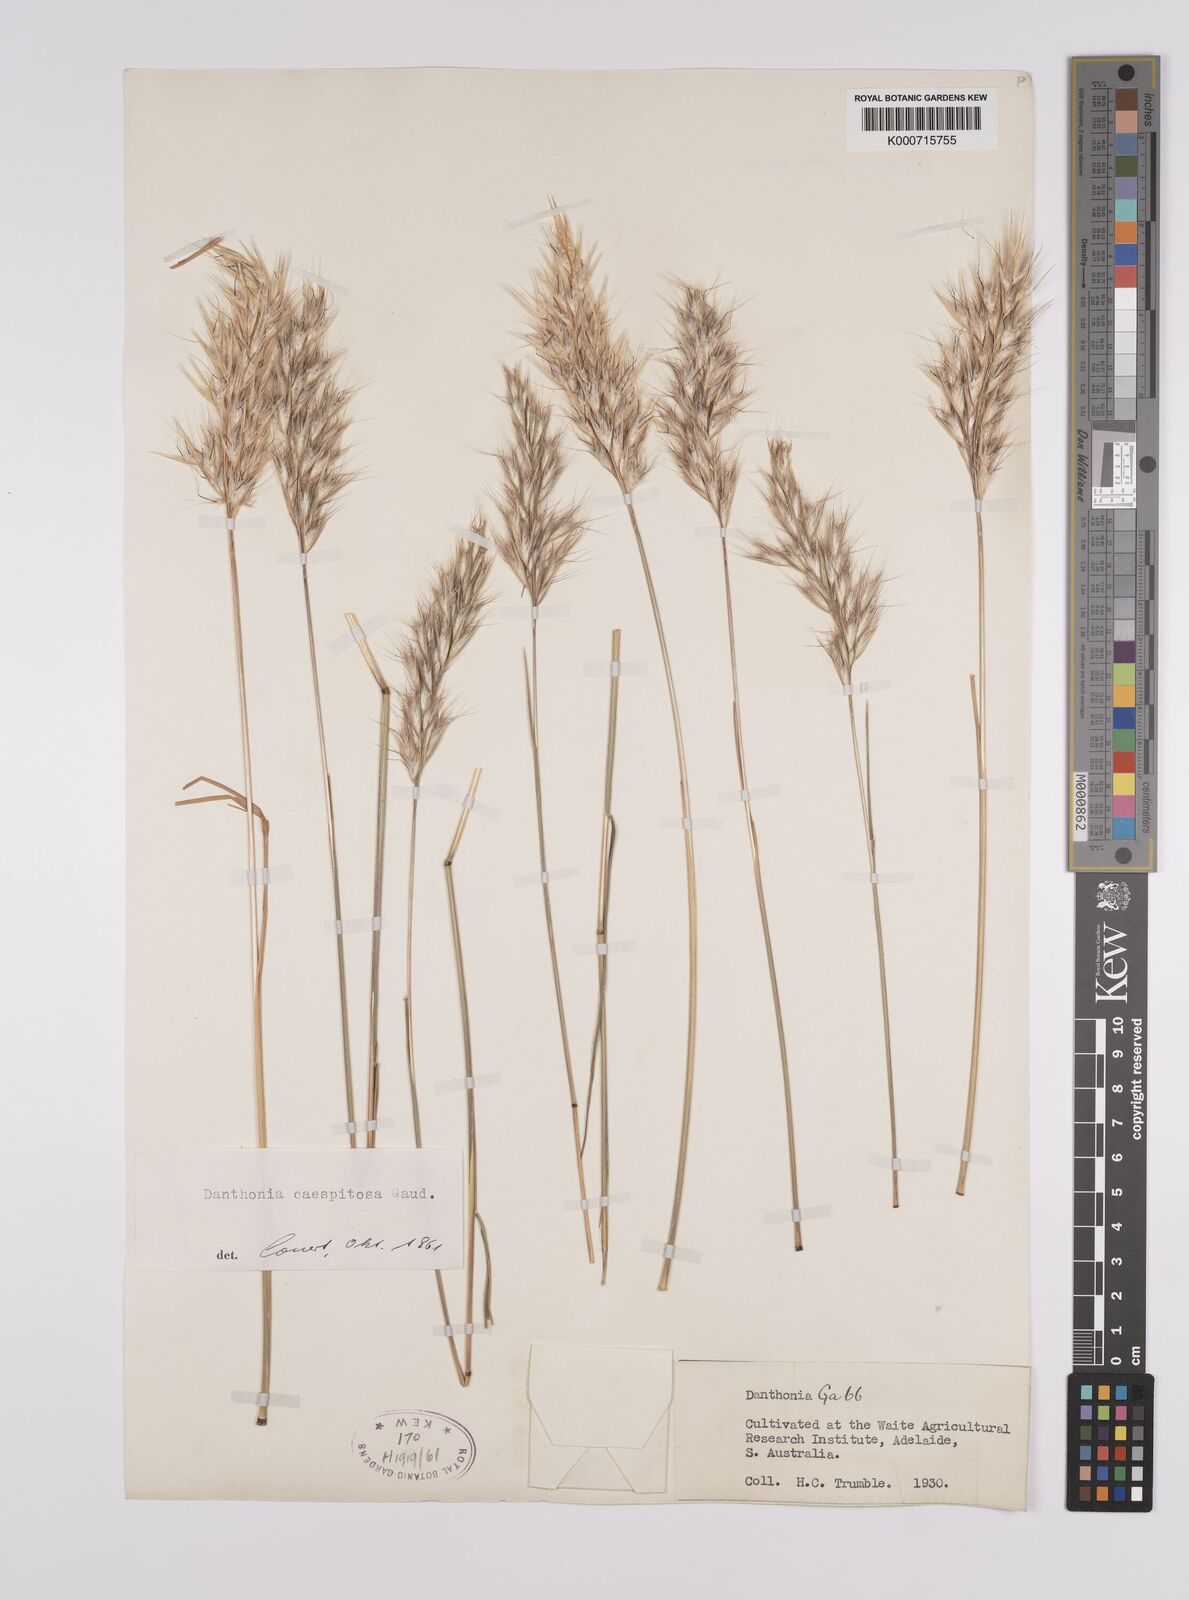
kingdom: Plantae
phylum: Tracheophyta
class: Liliopsida
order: Poales
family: Poaceae
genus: Rytidosperma
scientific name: Rytidosperma caespitosum
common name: Tufted wallaby grass
